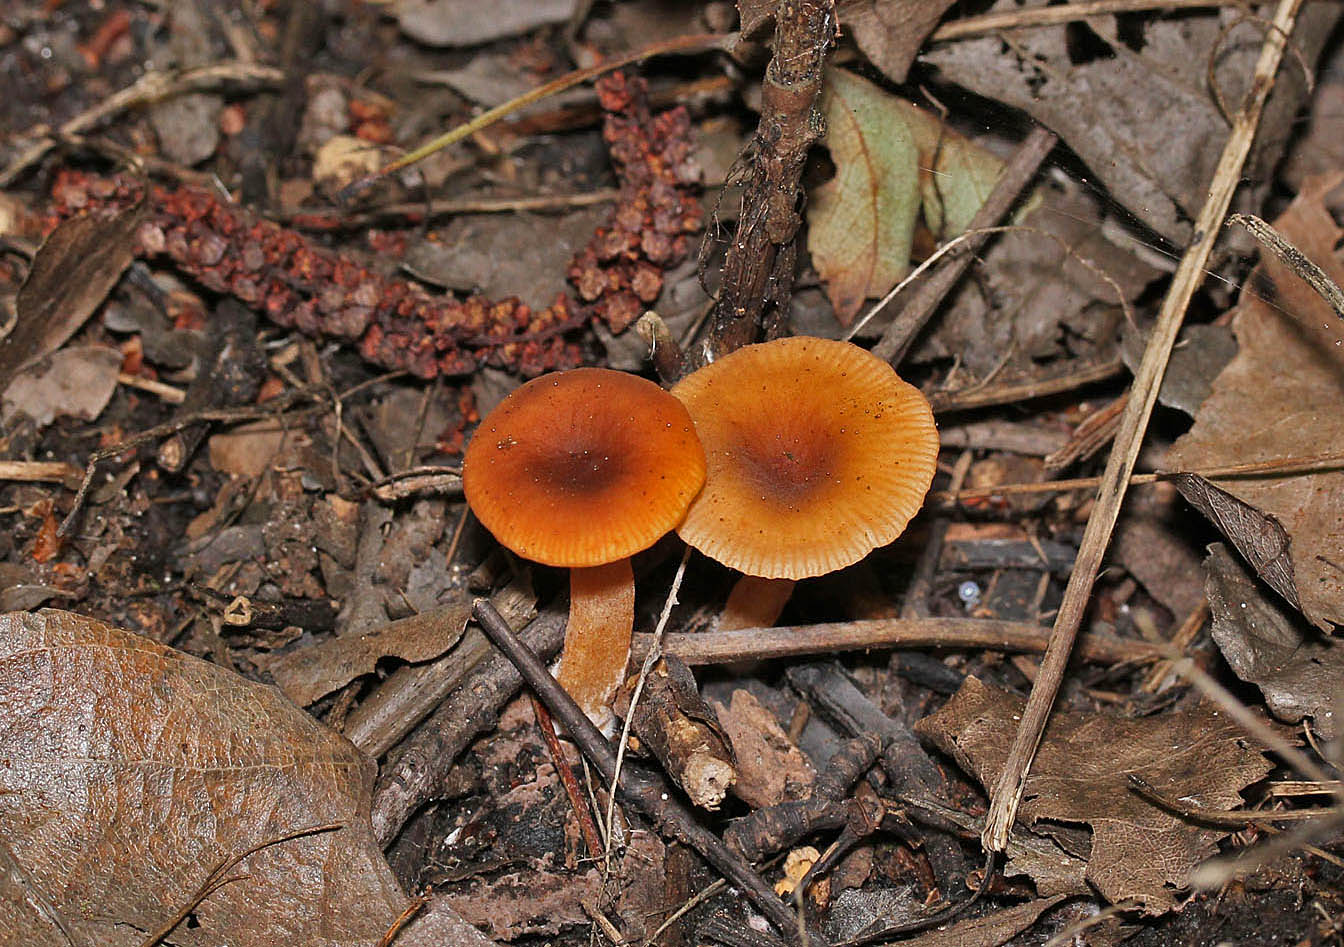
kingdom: Fungi
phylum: Basidiomycota
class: Agaricomycetes
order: Russulales
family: Russulaceae
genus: Lactarius
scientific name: Lactarius obscuratus
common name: elle-mælkehat
